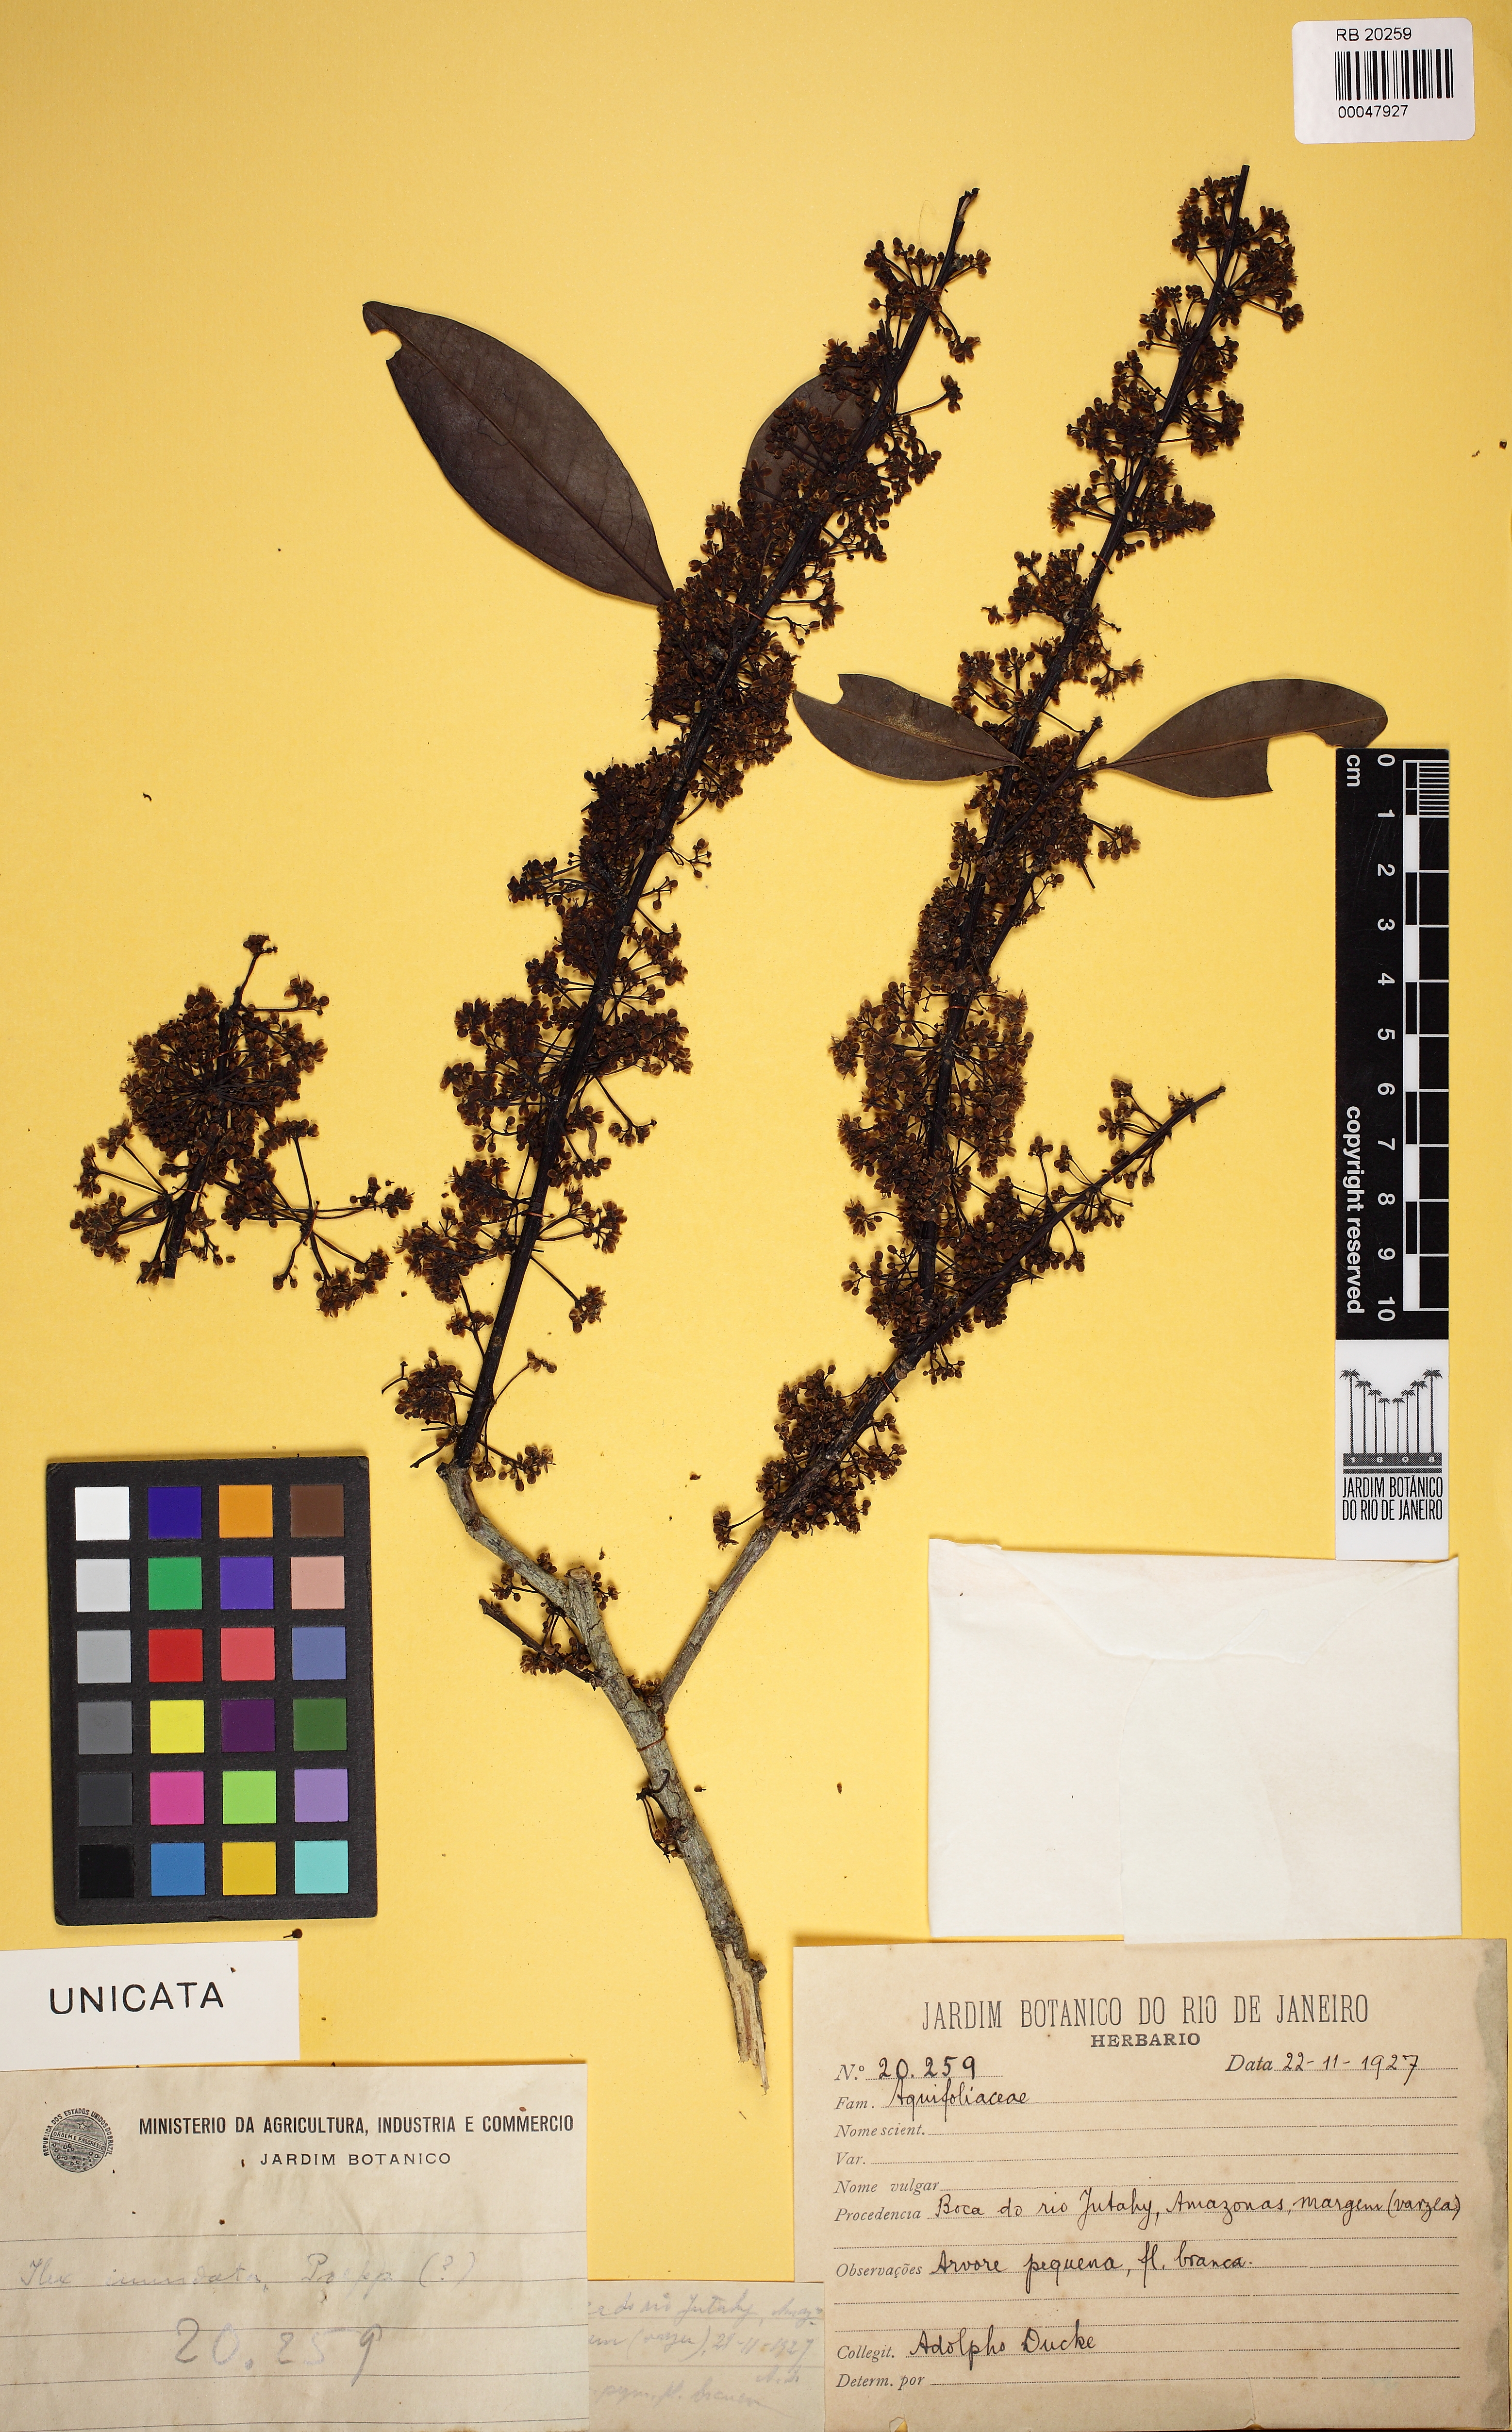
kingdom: Plantae
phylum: Tracheophyta
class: Magnoliopsida
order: Aquifoliales
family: Aquifoliaceae
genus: Ilex
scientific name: Ilex
